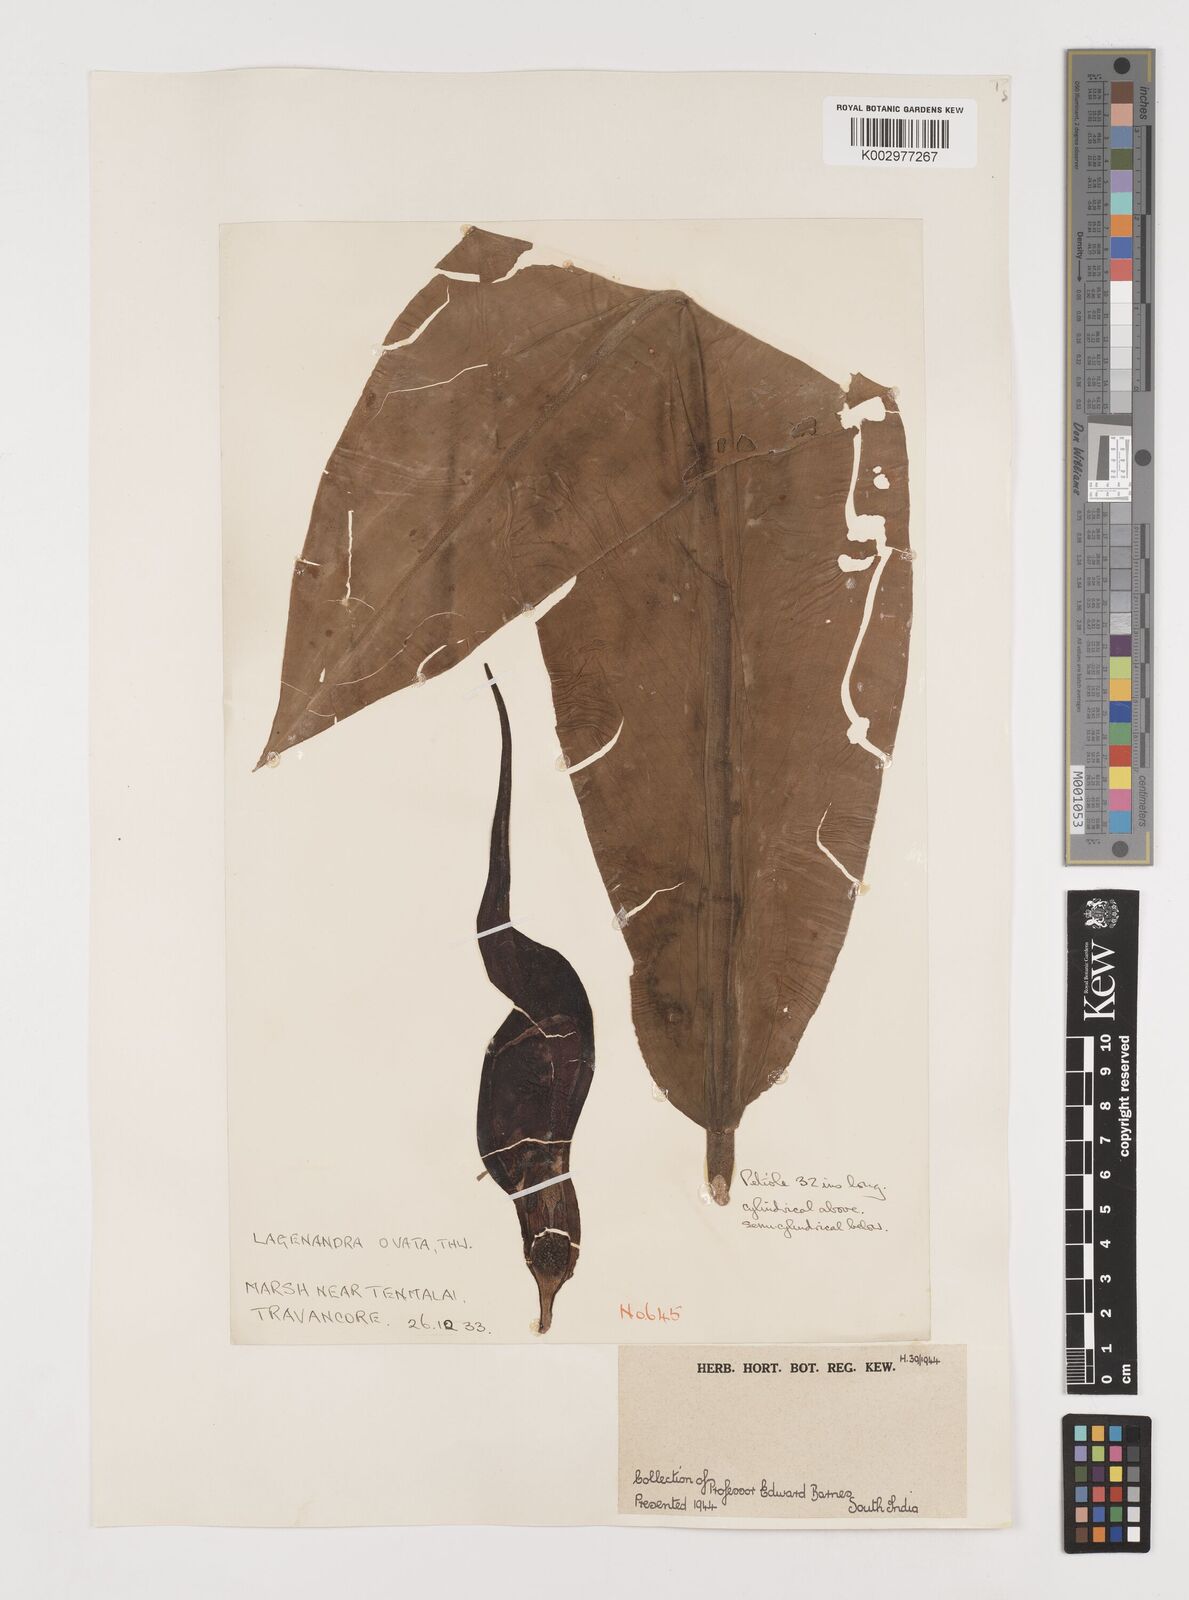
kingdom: Plantae
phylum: Tracheophyta
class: Liliopsida
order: Alismatales
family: Araceae
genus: Lagenandra
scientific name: Lagenandra ovata
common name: Malayan sword
